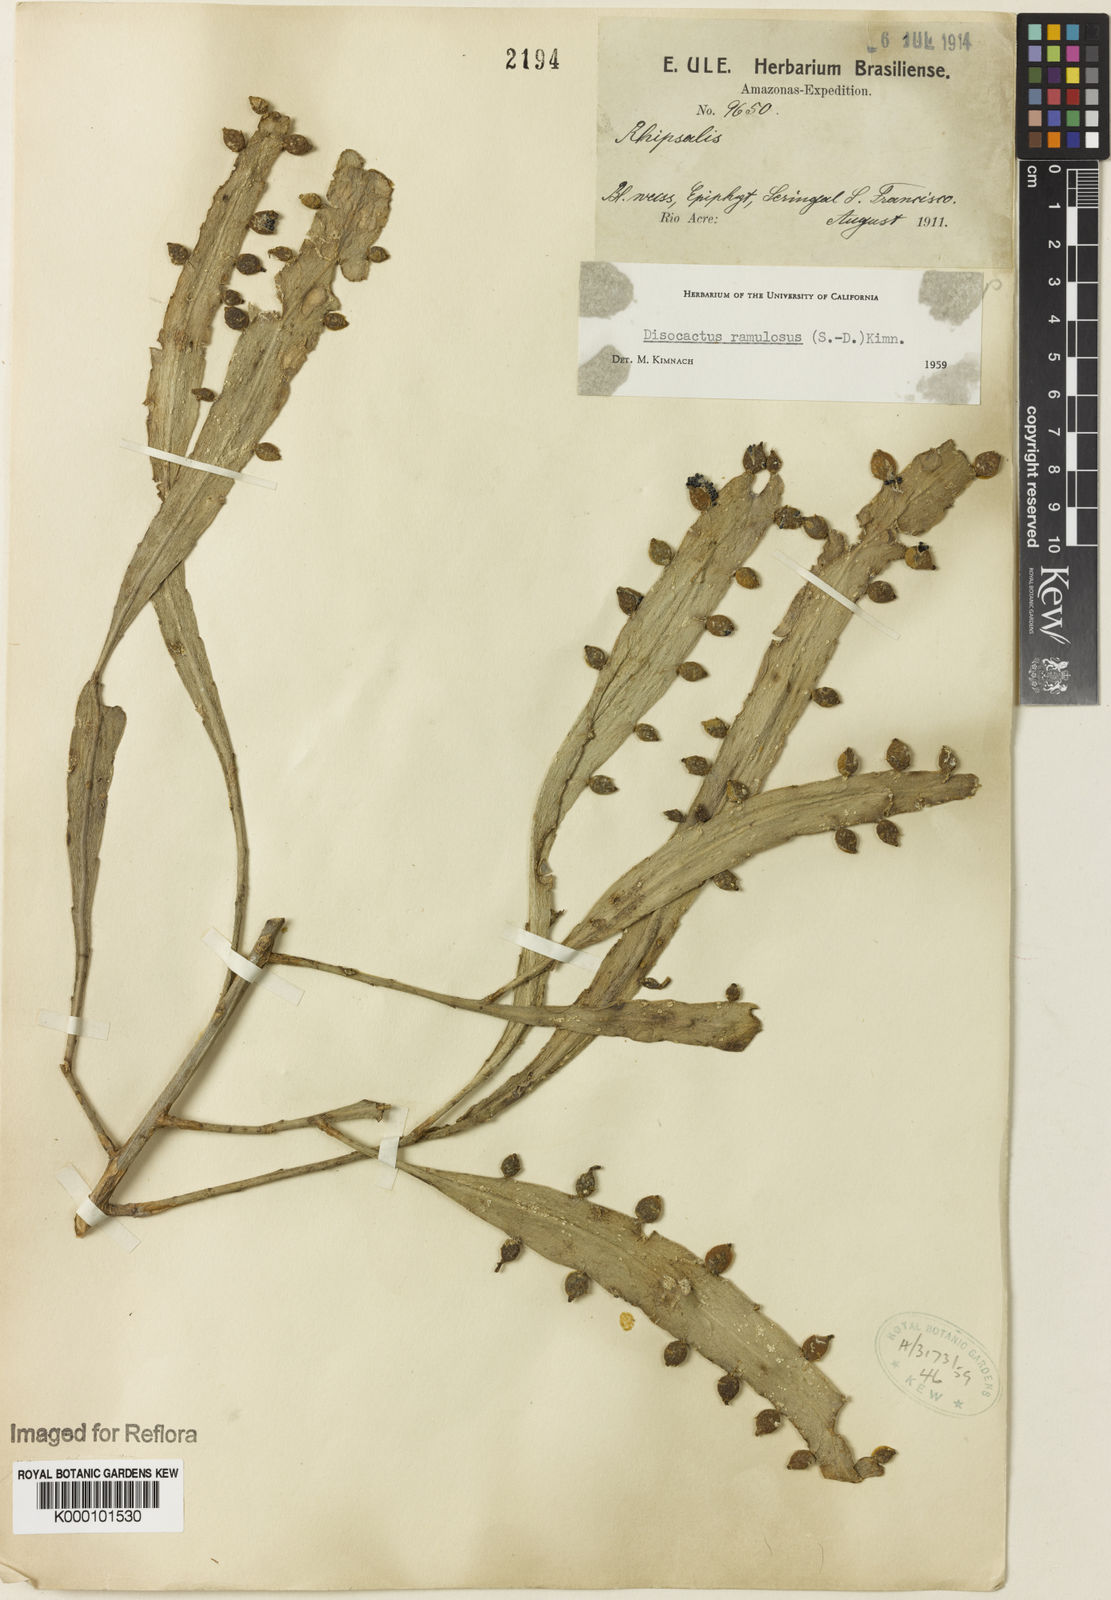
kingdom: Plantae
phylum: Tracheophyta
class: Magnoliopsida
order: Caryophyllales
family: Cactaceae
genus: Pseudorhipsalis
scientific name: Pseudorhipsalis
